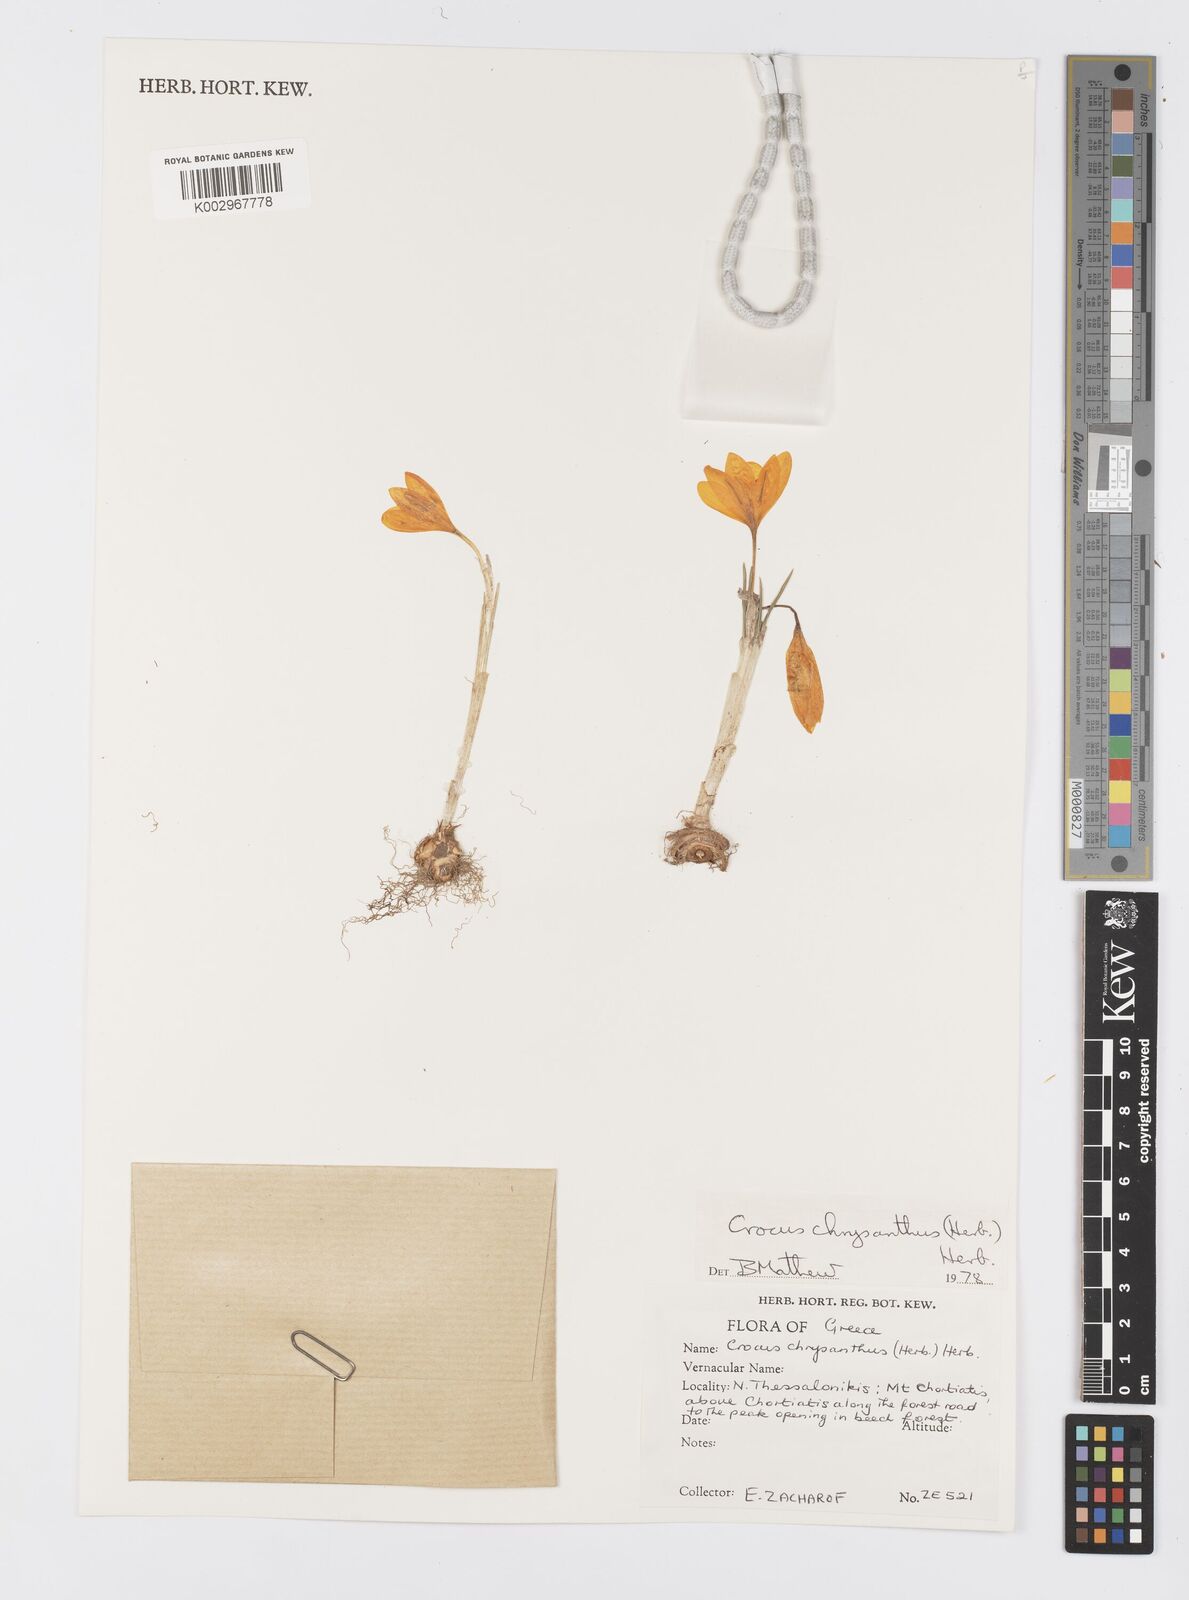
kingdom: Plantae
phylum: Tracheophyta
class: Liliopsida
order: Asparagales
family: Iridaceae
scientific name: Iridaceae
